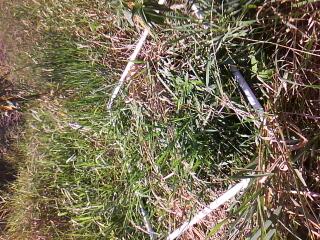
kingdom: Plantae
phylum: Tracheophyta
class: Magnoliopsida
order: Gentianales
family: Apocynaceae
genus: Asclepias
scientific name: Asclepias incarnata
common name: Swamp milkweed
